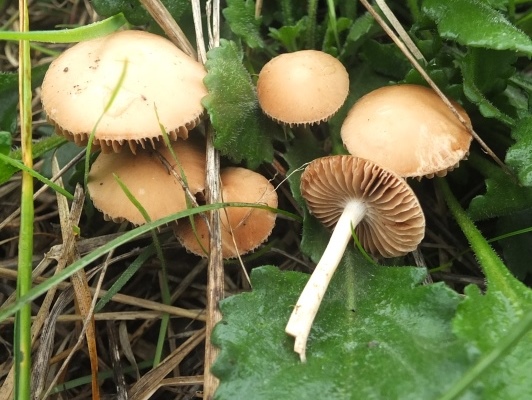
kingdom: Fungi
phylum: Basidiomycota
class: Agaricomycetes
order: Agaricales
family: Psathyrellaceae
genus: Psathyrella
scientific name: Psathyrella clivensis
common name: eng-mørkhat
